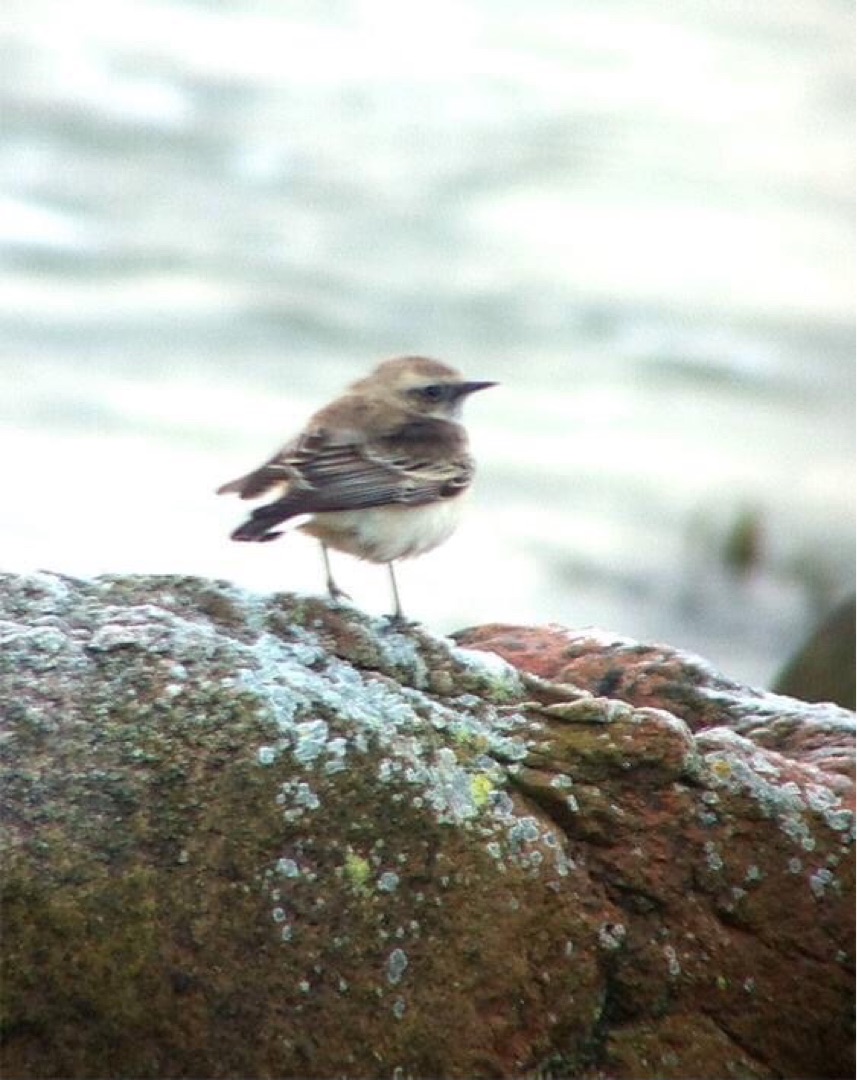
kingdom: Animalia
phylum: Chordata
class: Aves
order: Passeriformes
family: Muscicapidae
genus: Oenanthe
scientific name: Oenanthe pleschanka
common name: Nonnestenpikker
